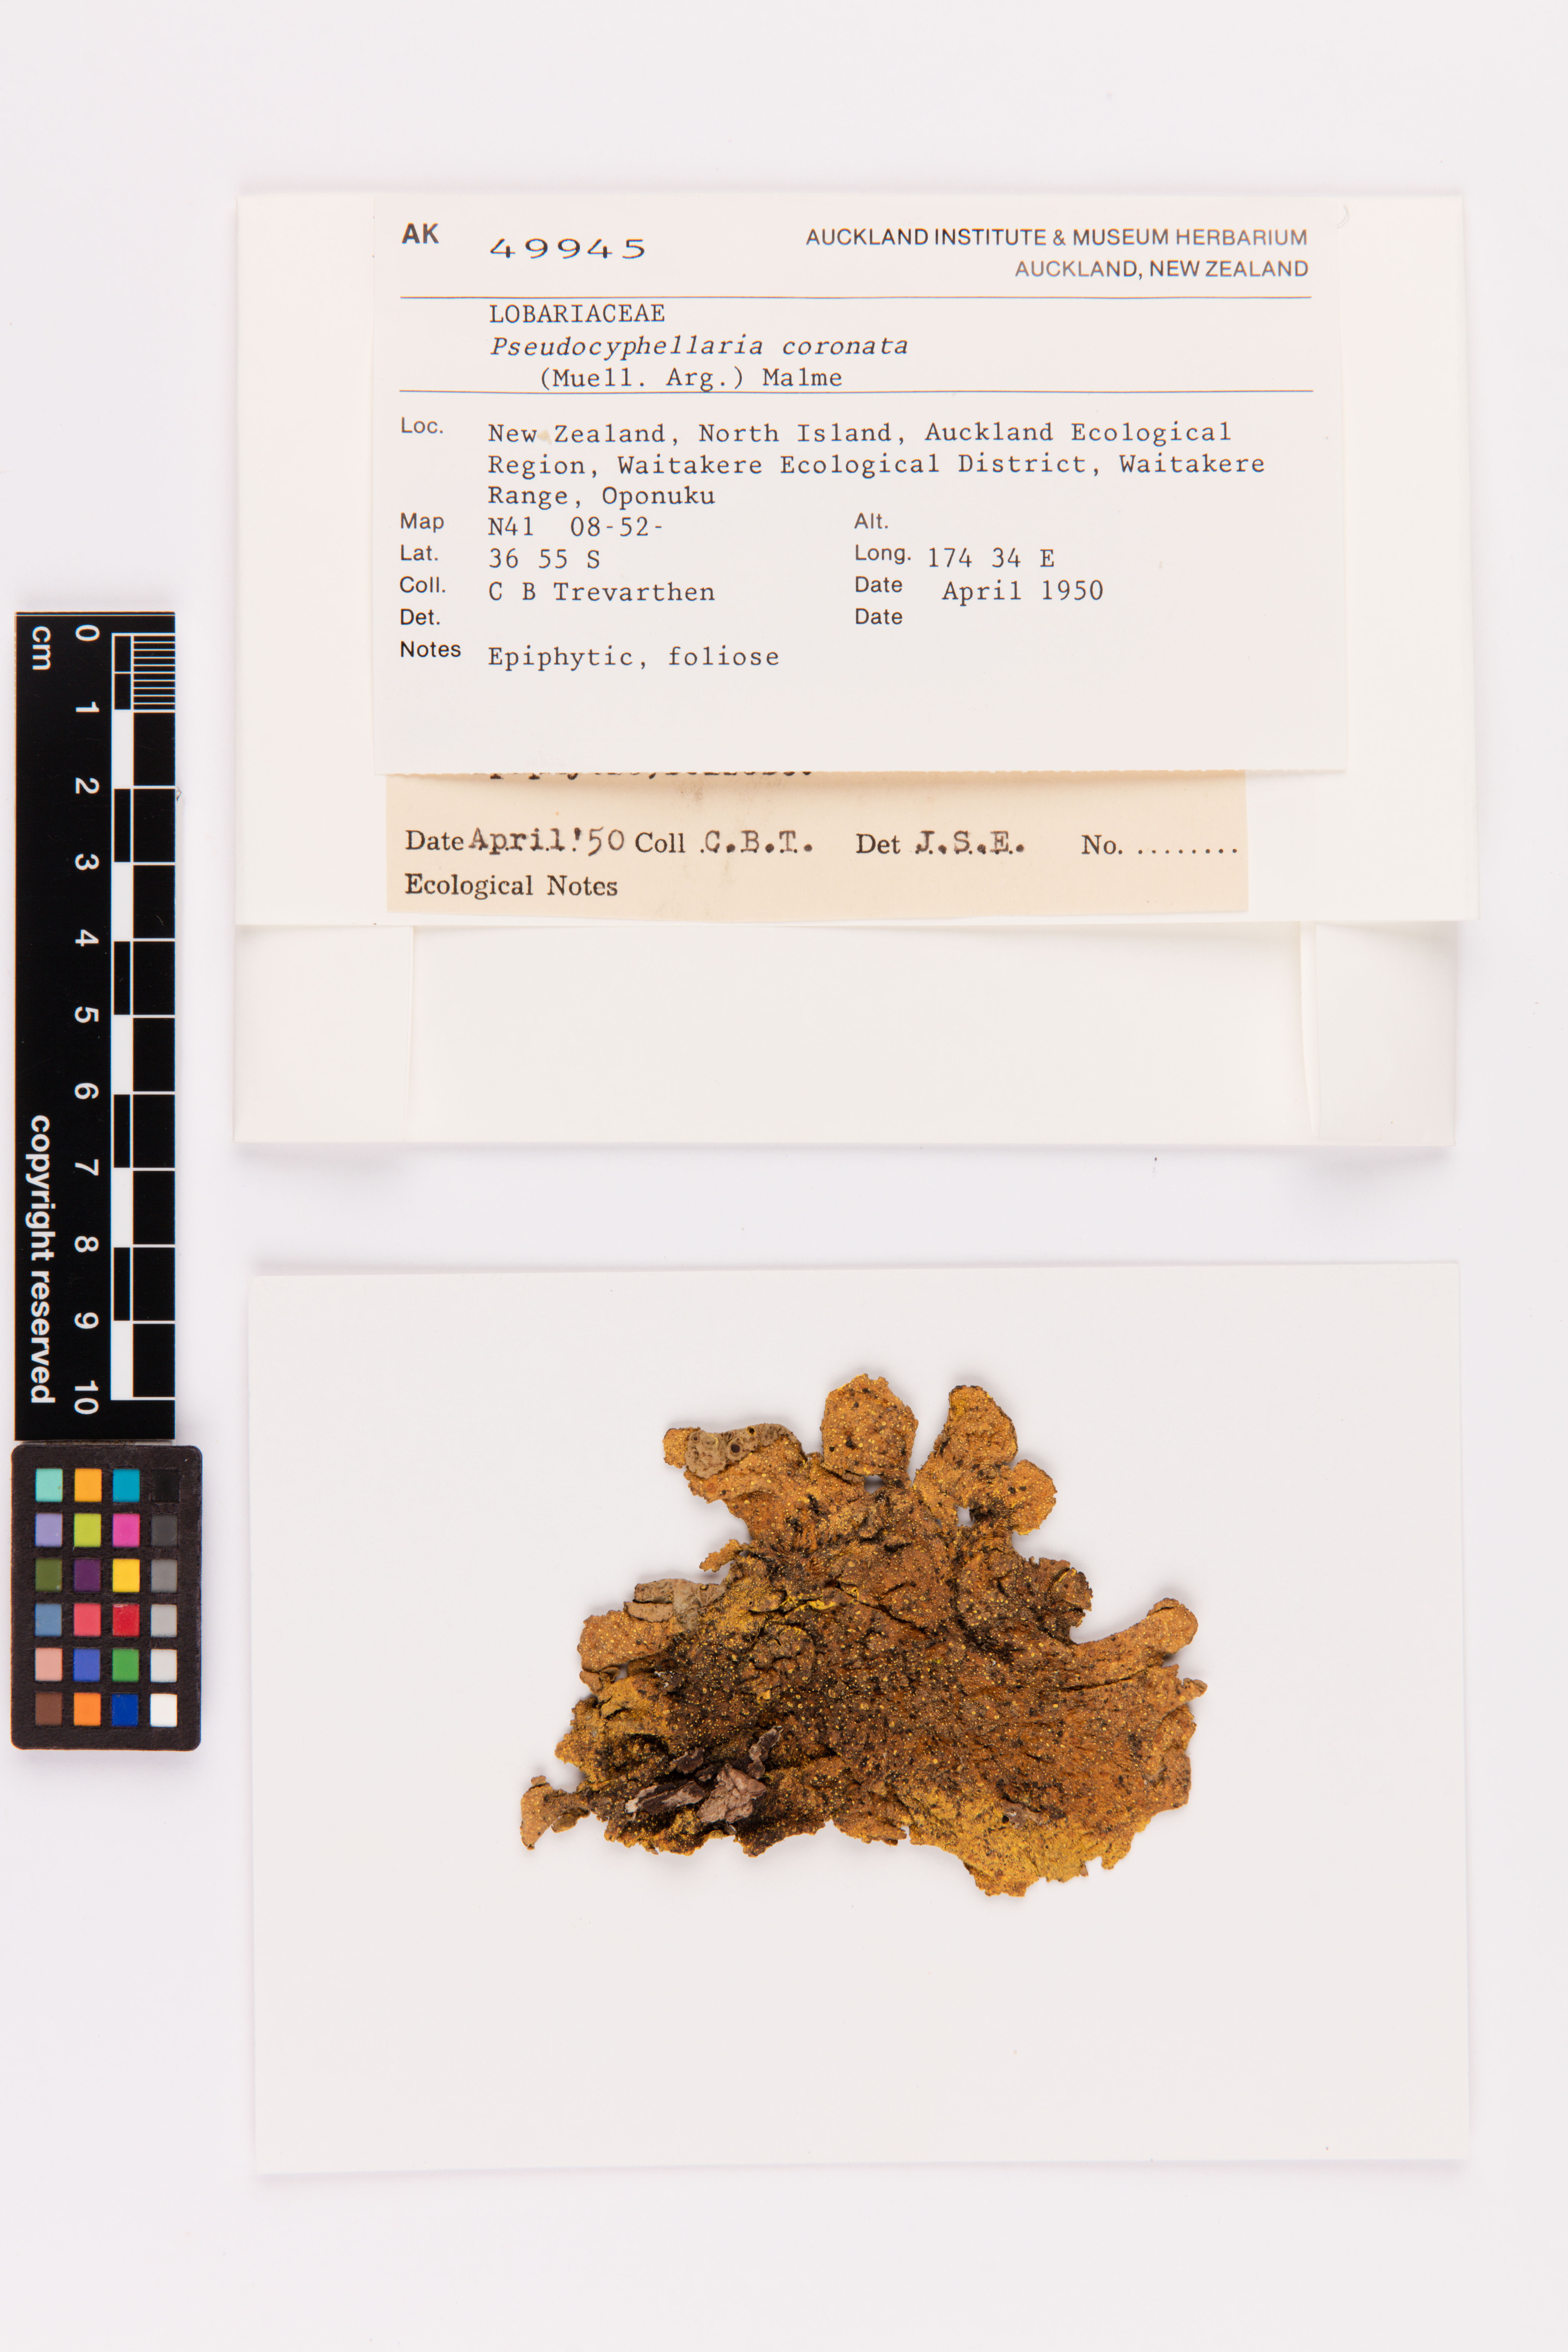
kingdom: Fungi
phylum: Ascomycota
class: Lecanoromycetes
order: Peltigerales
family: Lobariaceae
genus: Yarrumia
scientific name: Yarrumia coronata
